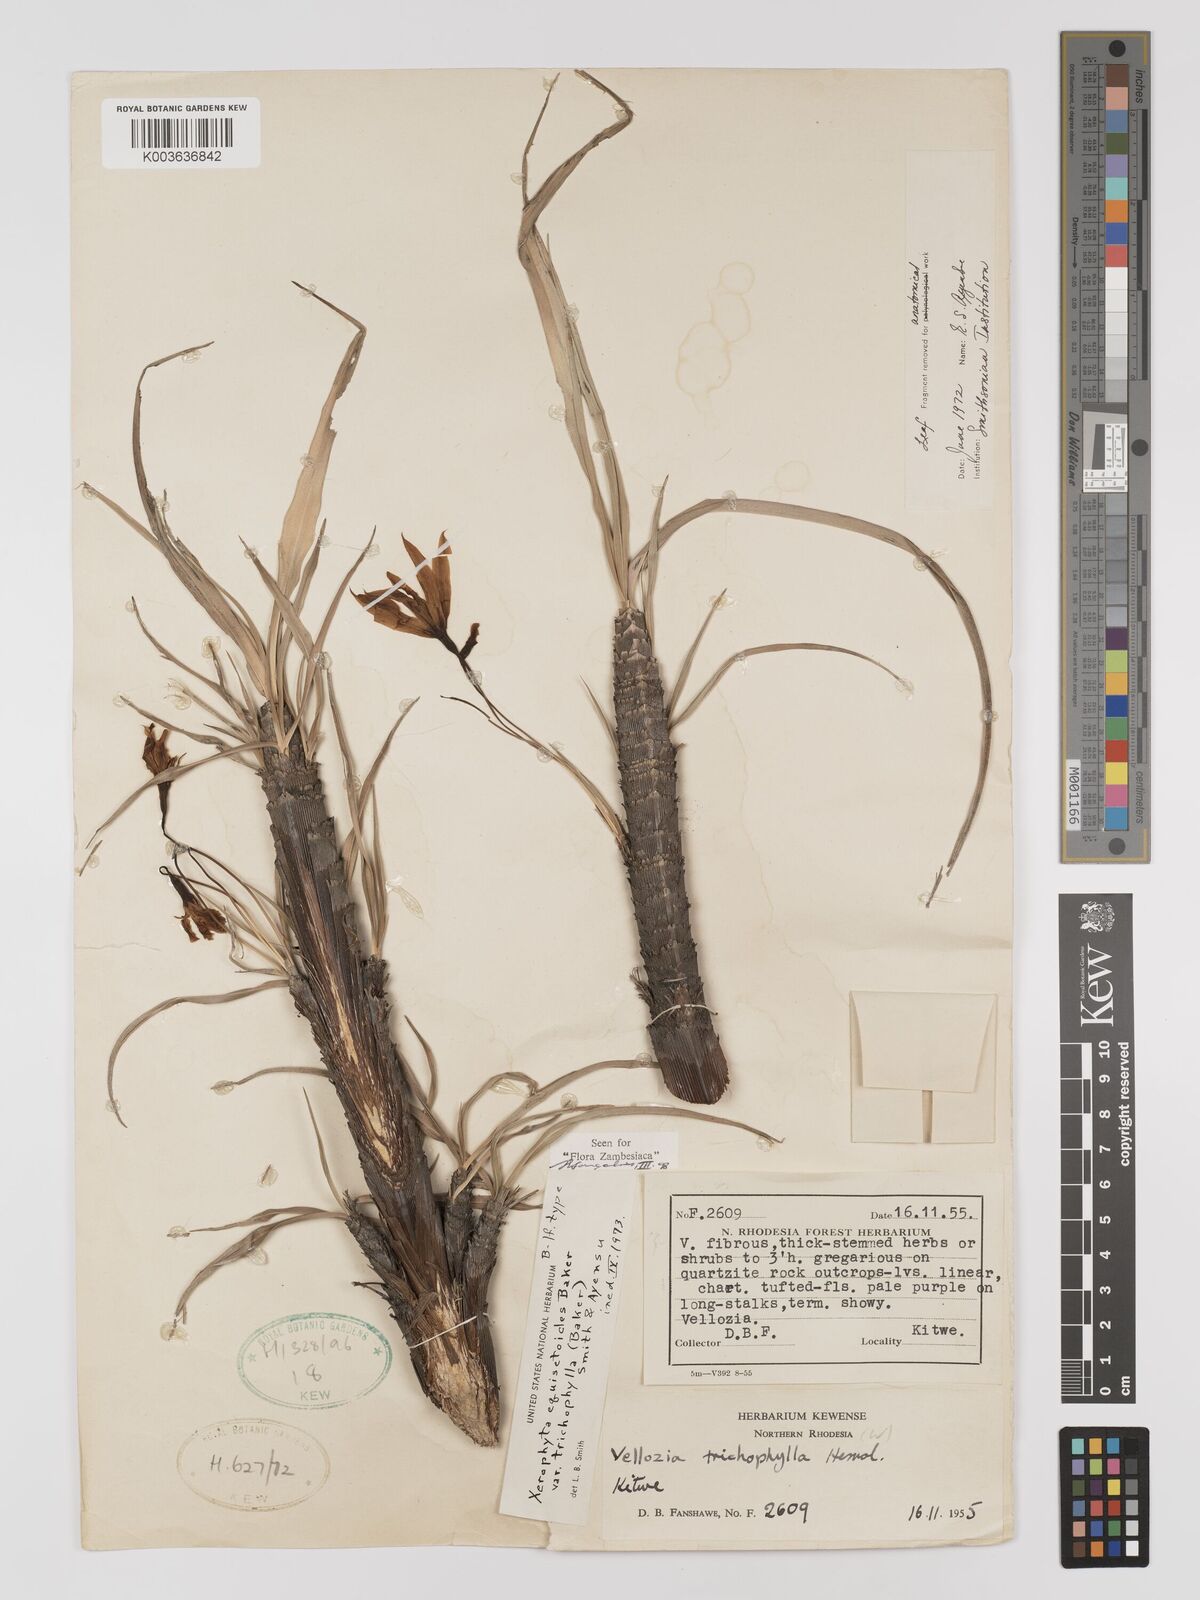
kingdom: Plantae
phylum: Tracheophyta
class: Liliopsida
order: Pandanales
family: Velloziaceae
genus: Xerophyta
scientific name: Xerophyta trichophylla
